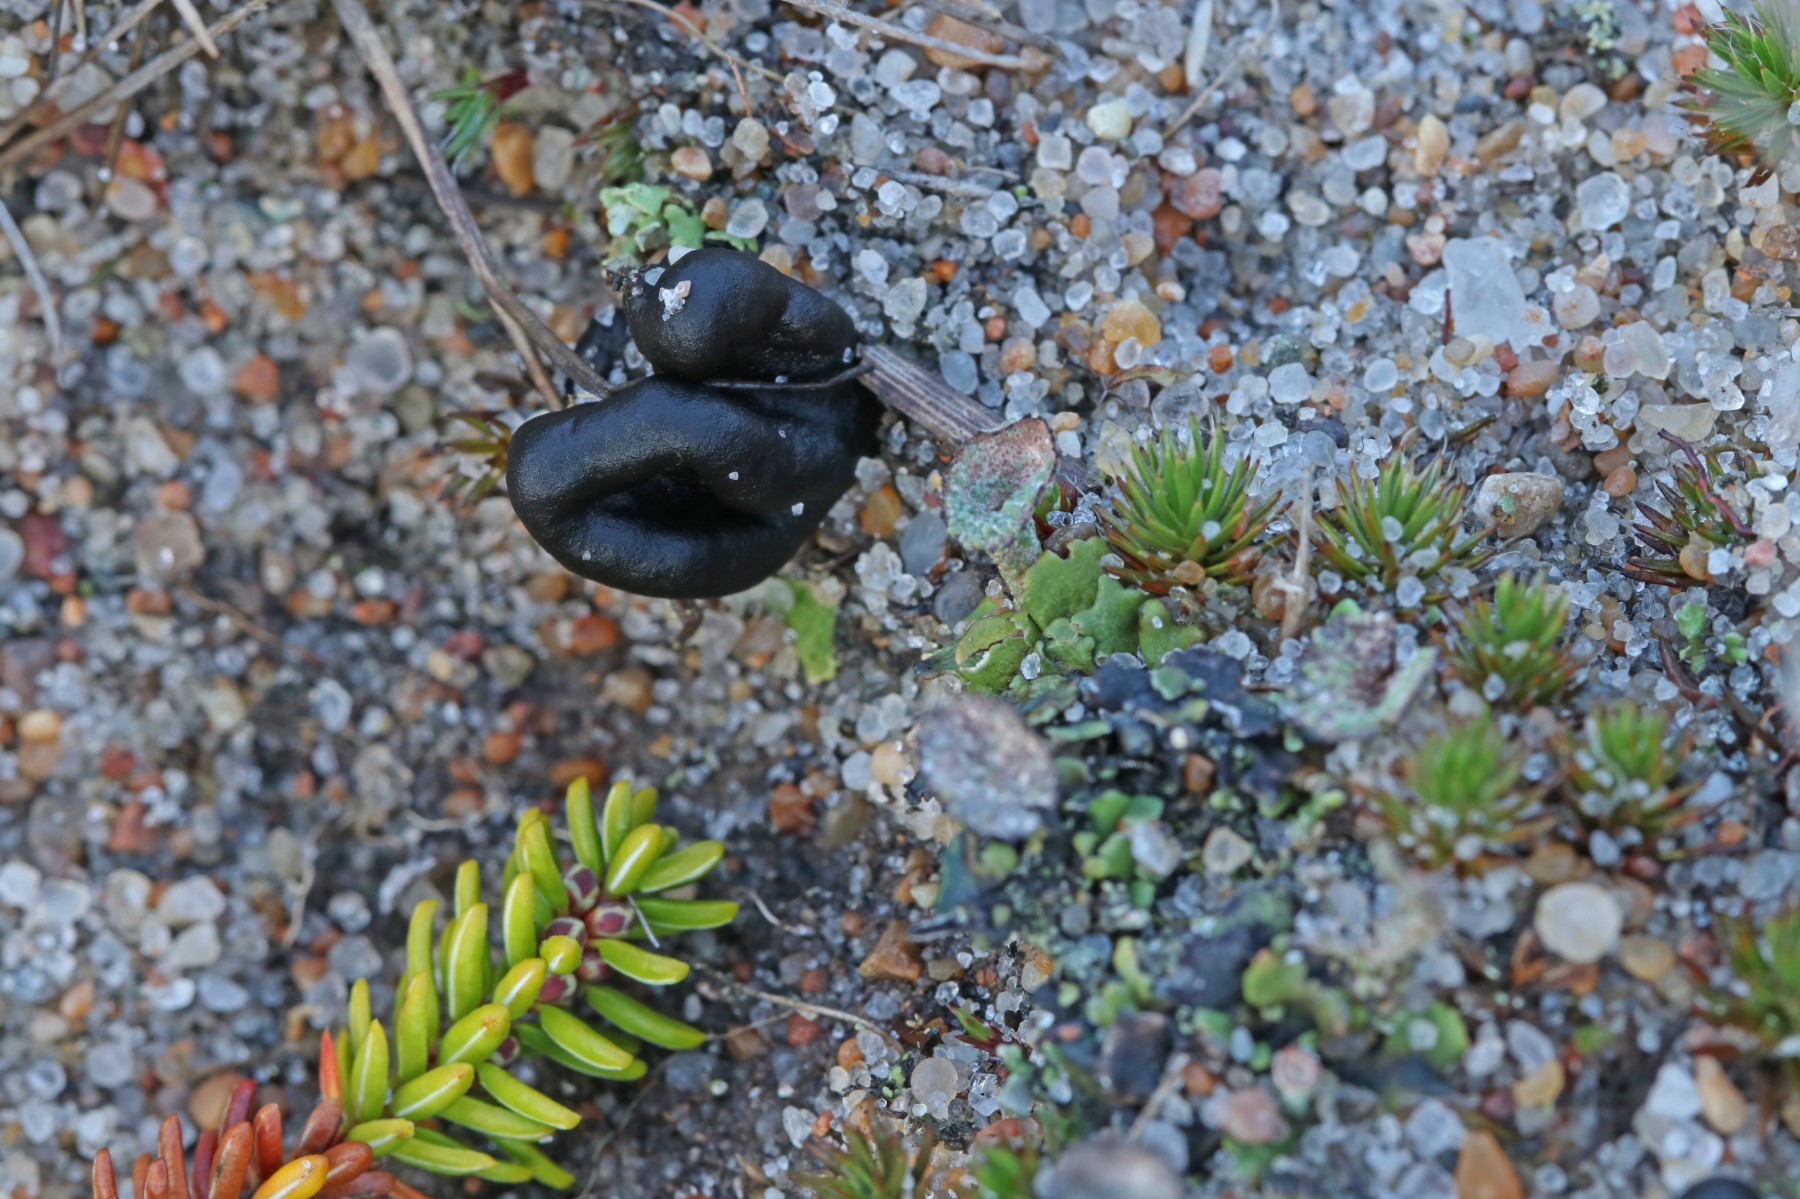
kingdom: Fungi
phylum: Ascomycota
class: Geoglossomycetes
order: Geoglossales
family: Geoglossaceae
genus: Sabuloglossum
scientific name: Sabuloglossum arenarium
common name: klit-jordtunge
